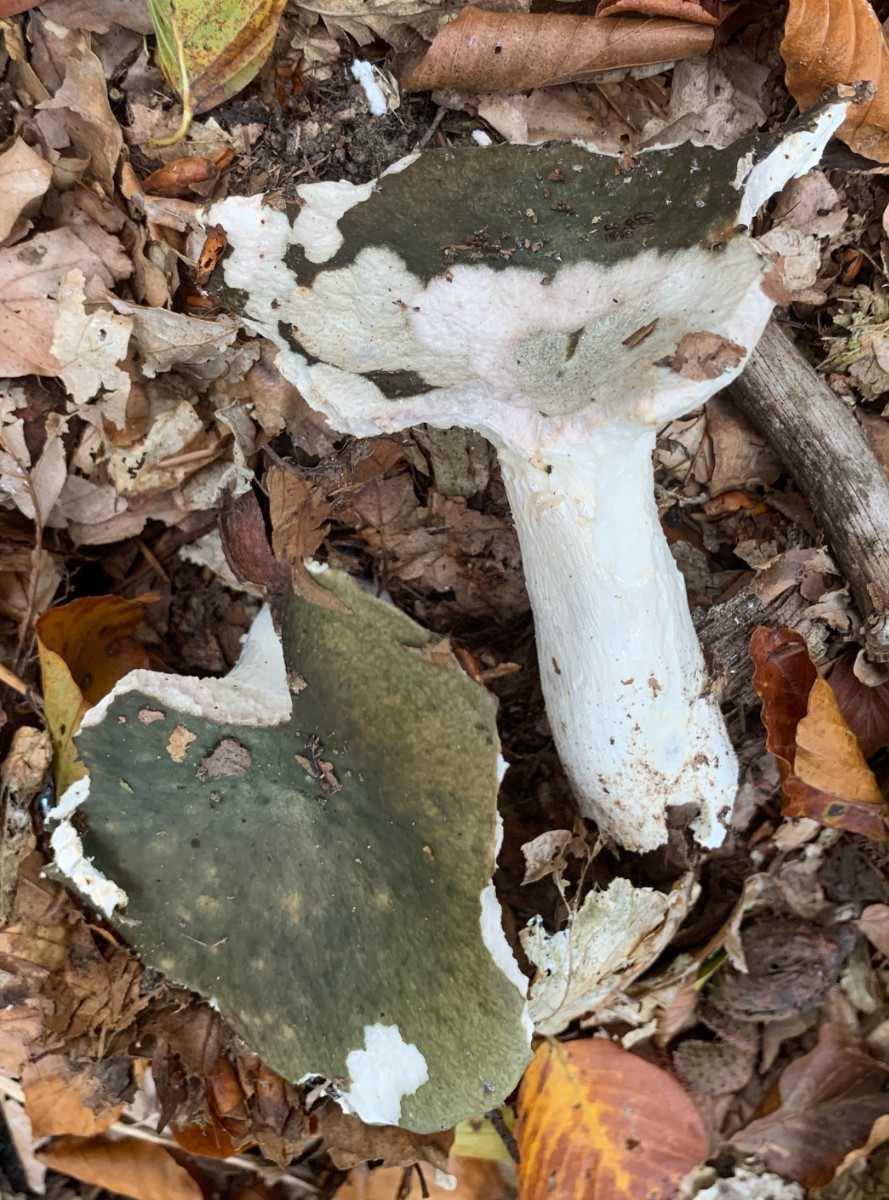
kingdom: Fungi
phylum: Basidiomycota
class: Agaricomycetes
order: Russulales
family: Russulaceae
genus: Russula
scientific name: Russula
